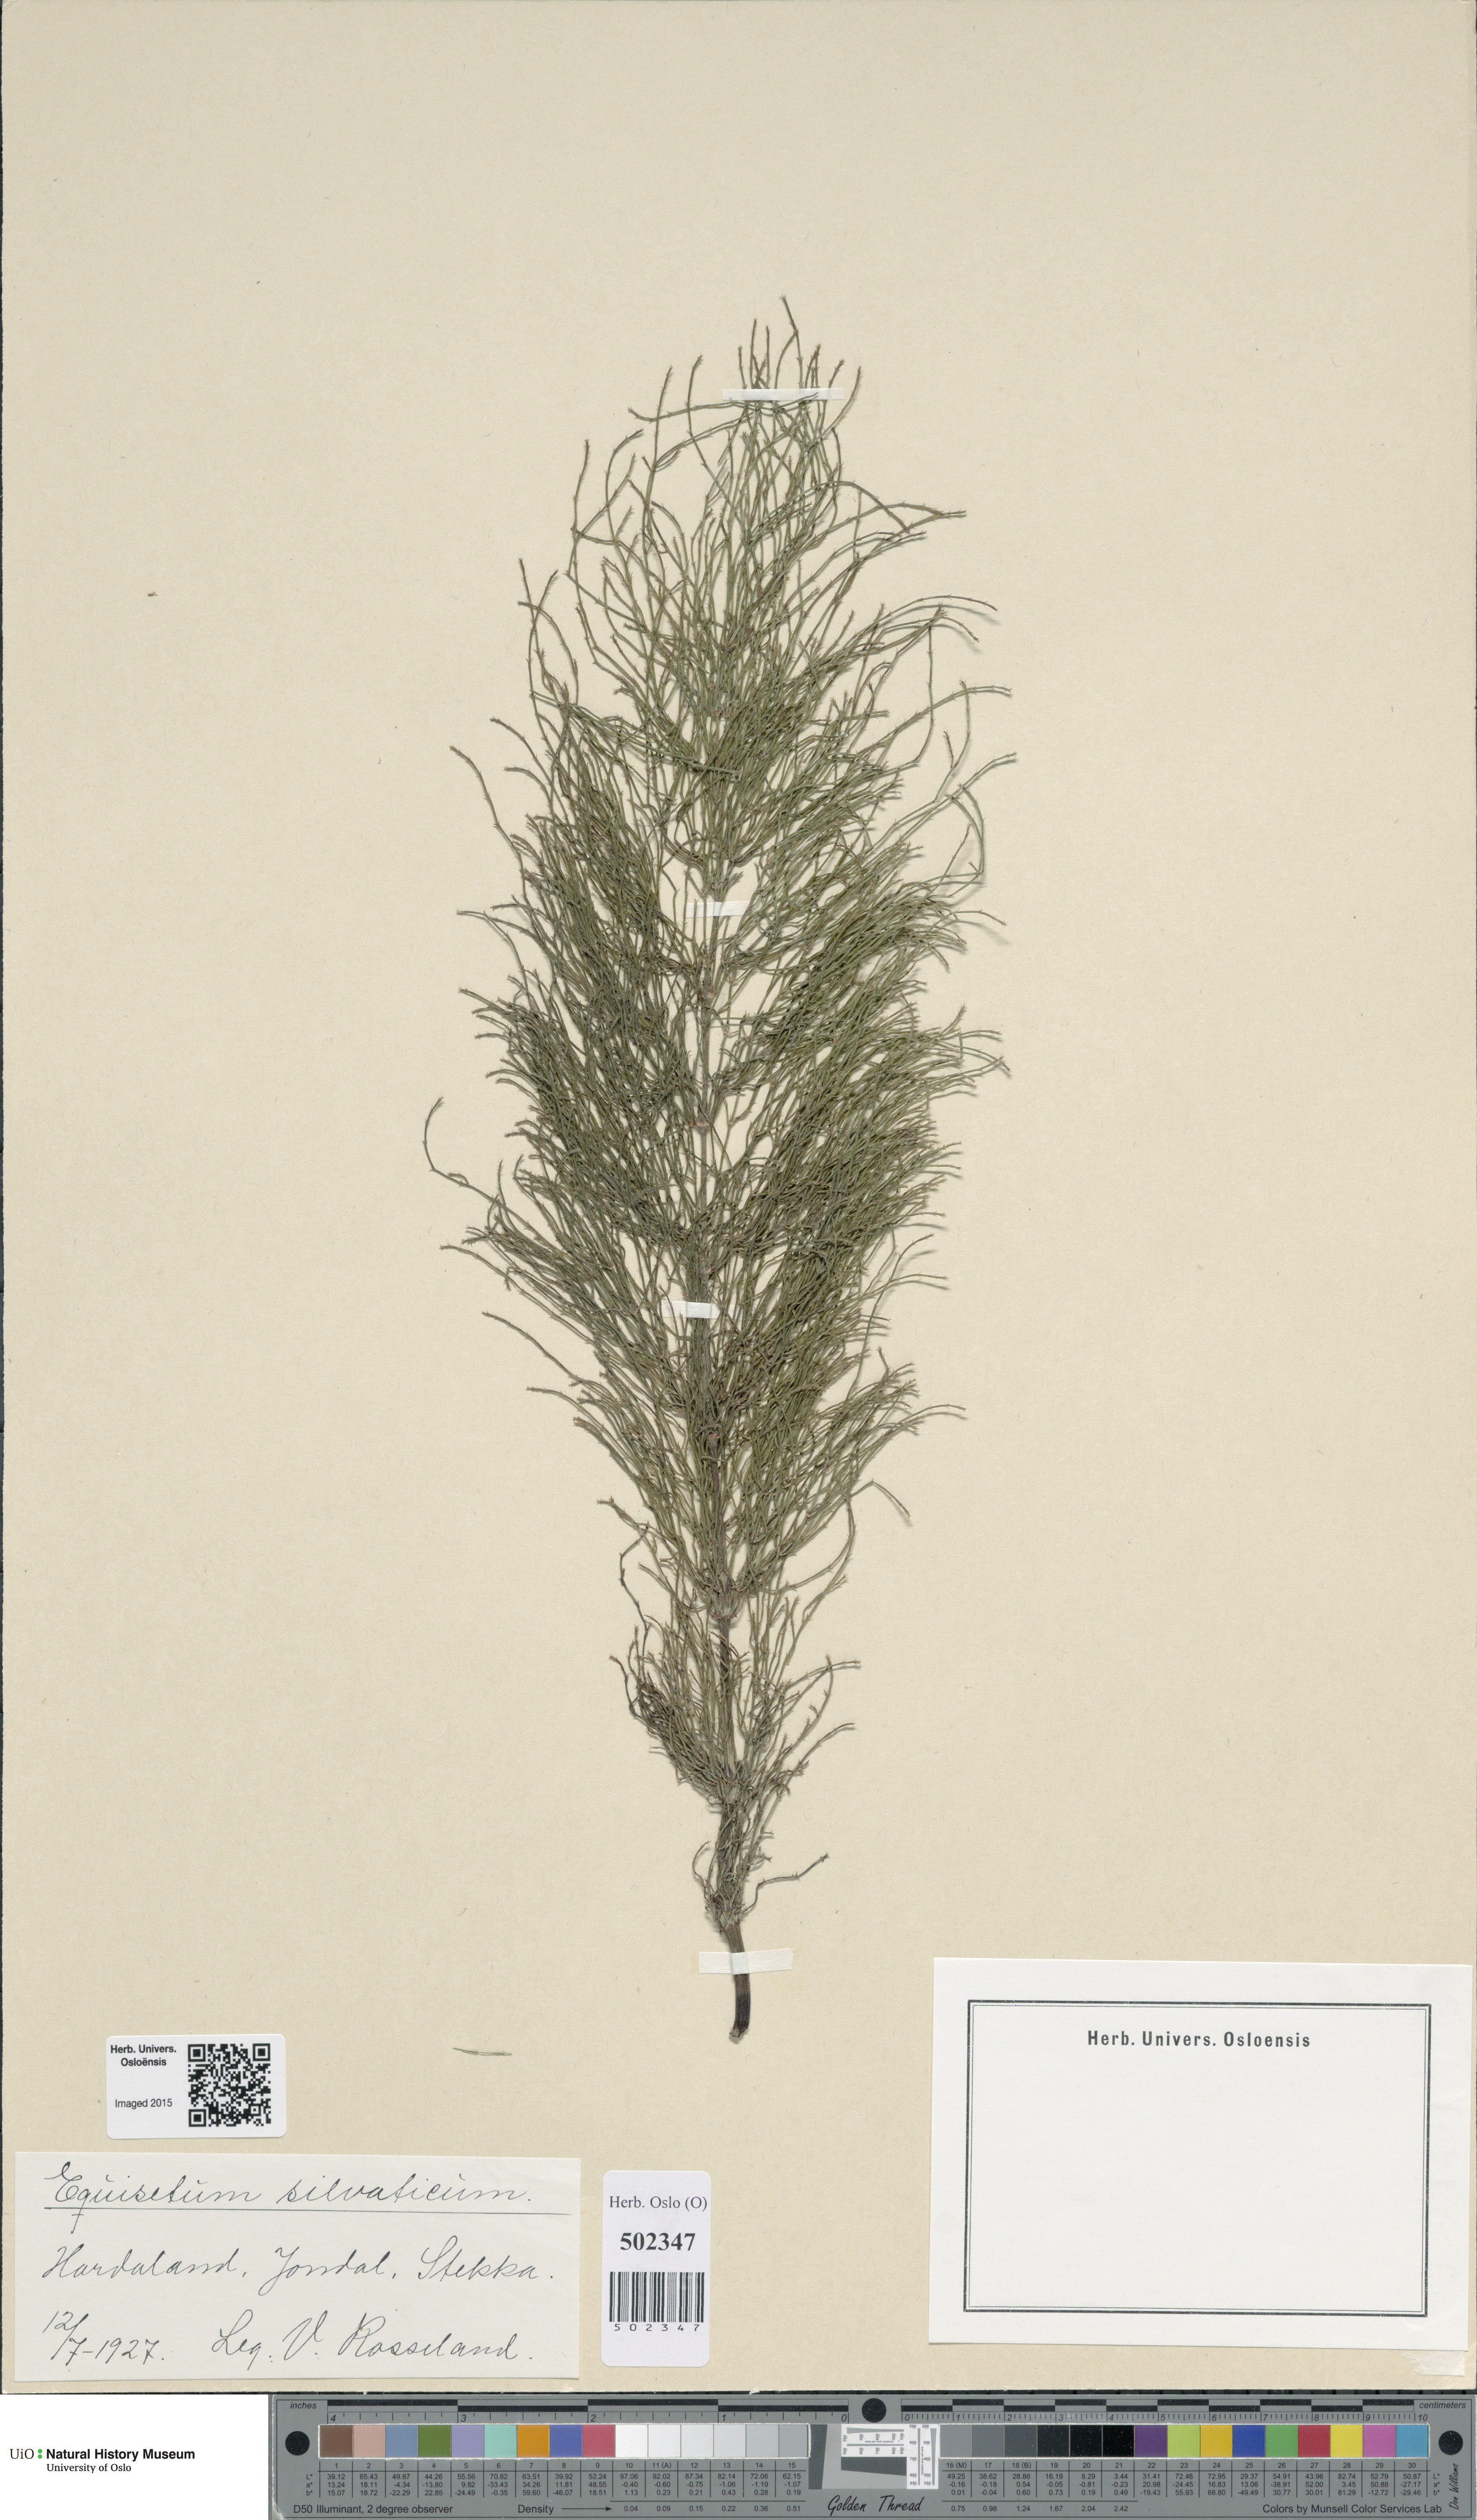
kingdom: Plantae
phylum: Tracheophyta
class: Polypodiopsida
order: Equisetales
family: Equisetaceae
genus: Equisetum
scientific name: Equisetum sylvaticum
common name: Wood horsetail
